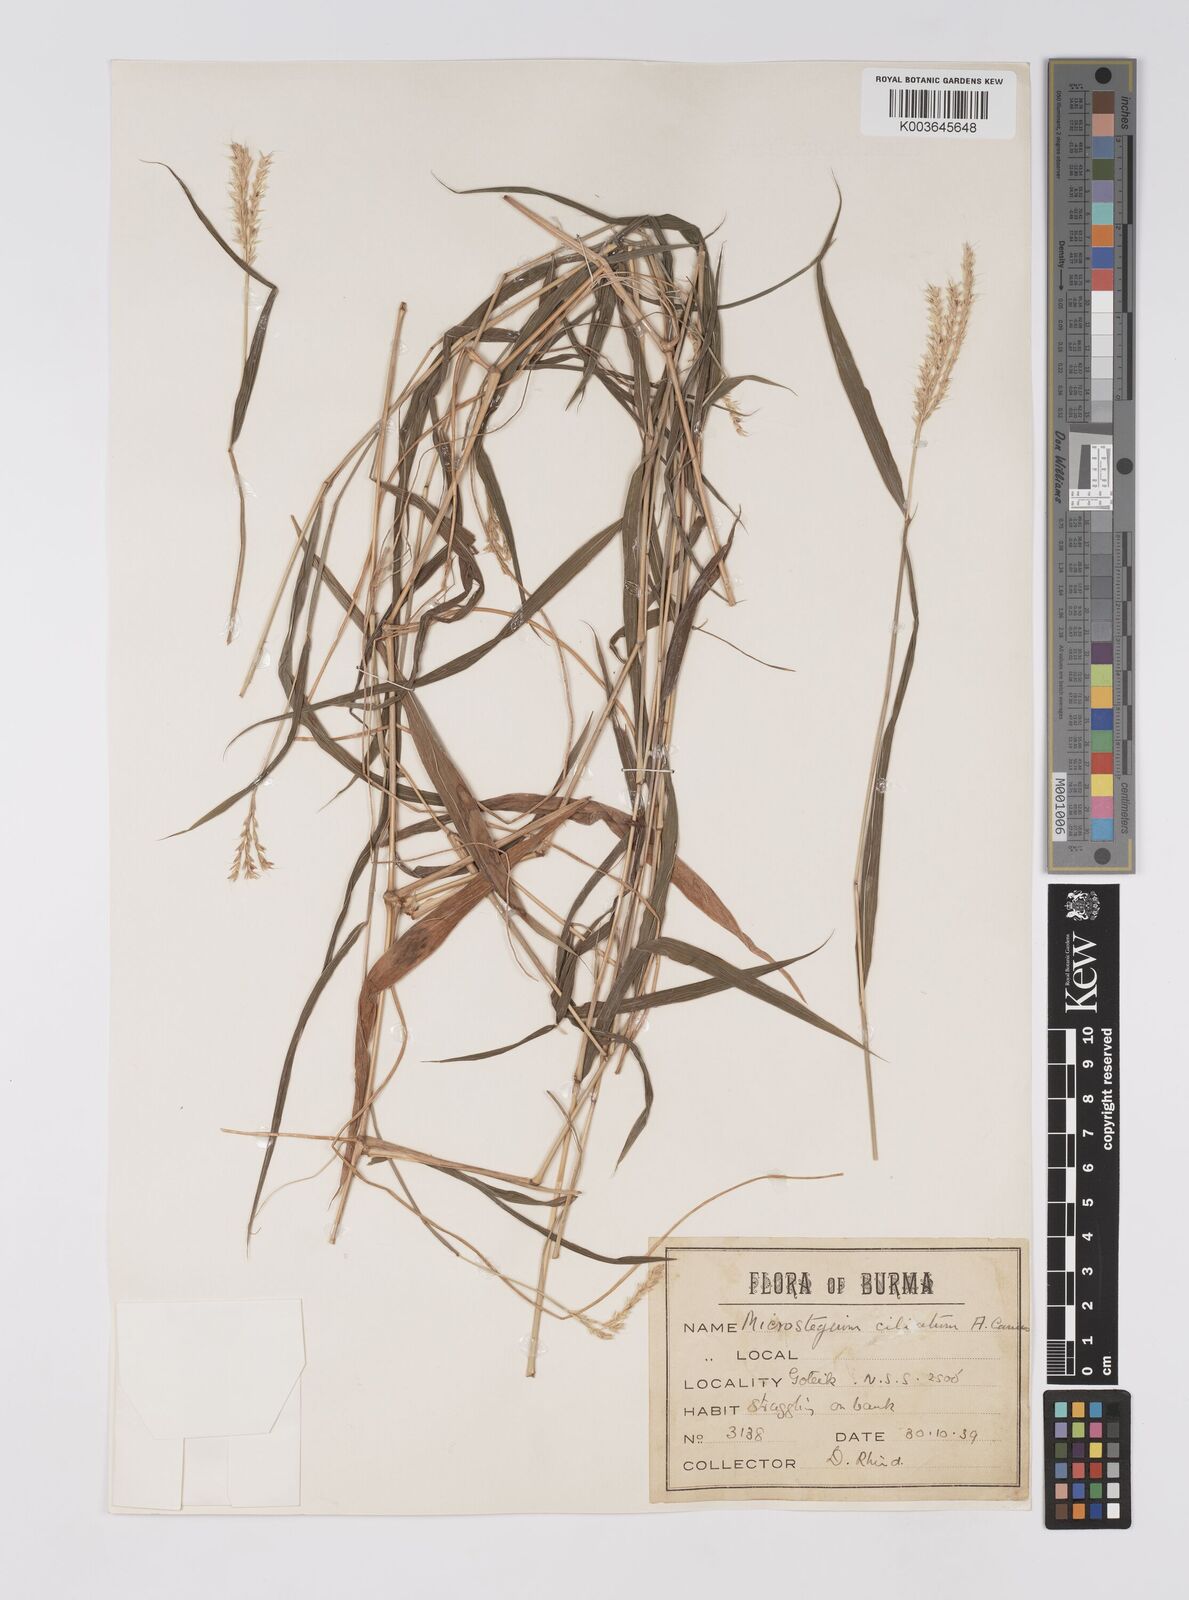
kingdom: Plantae
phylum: Tracheophyta
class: Liliopsida
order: Poales
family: Poaceae
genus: Microstegium
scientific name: Microstegium fasciculatum
